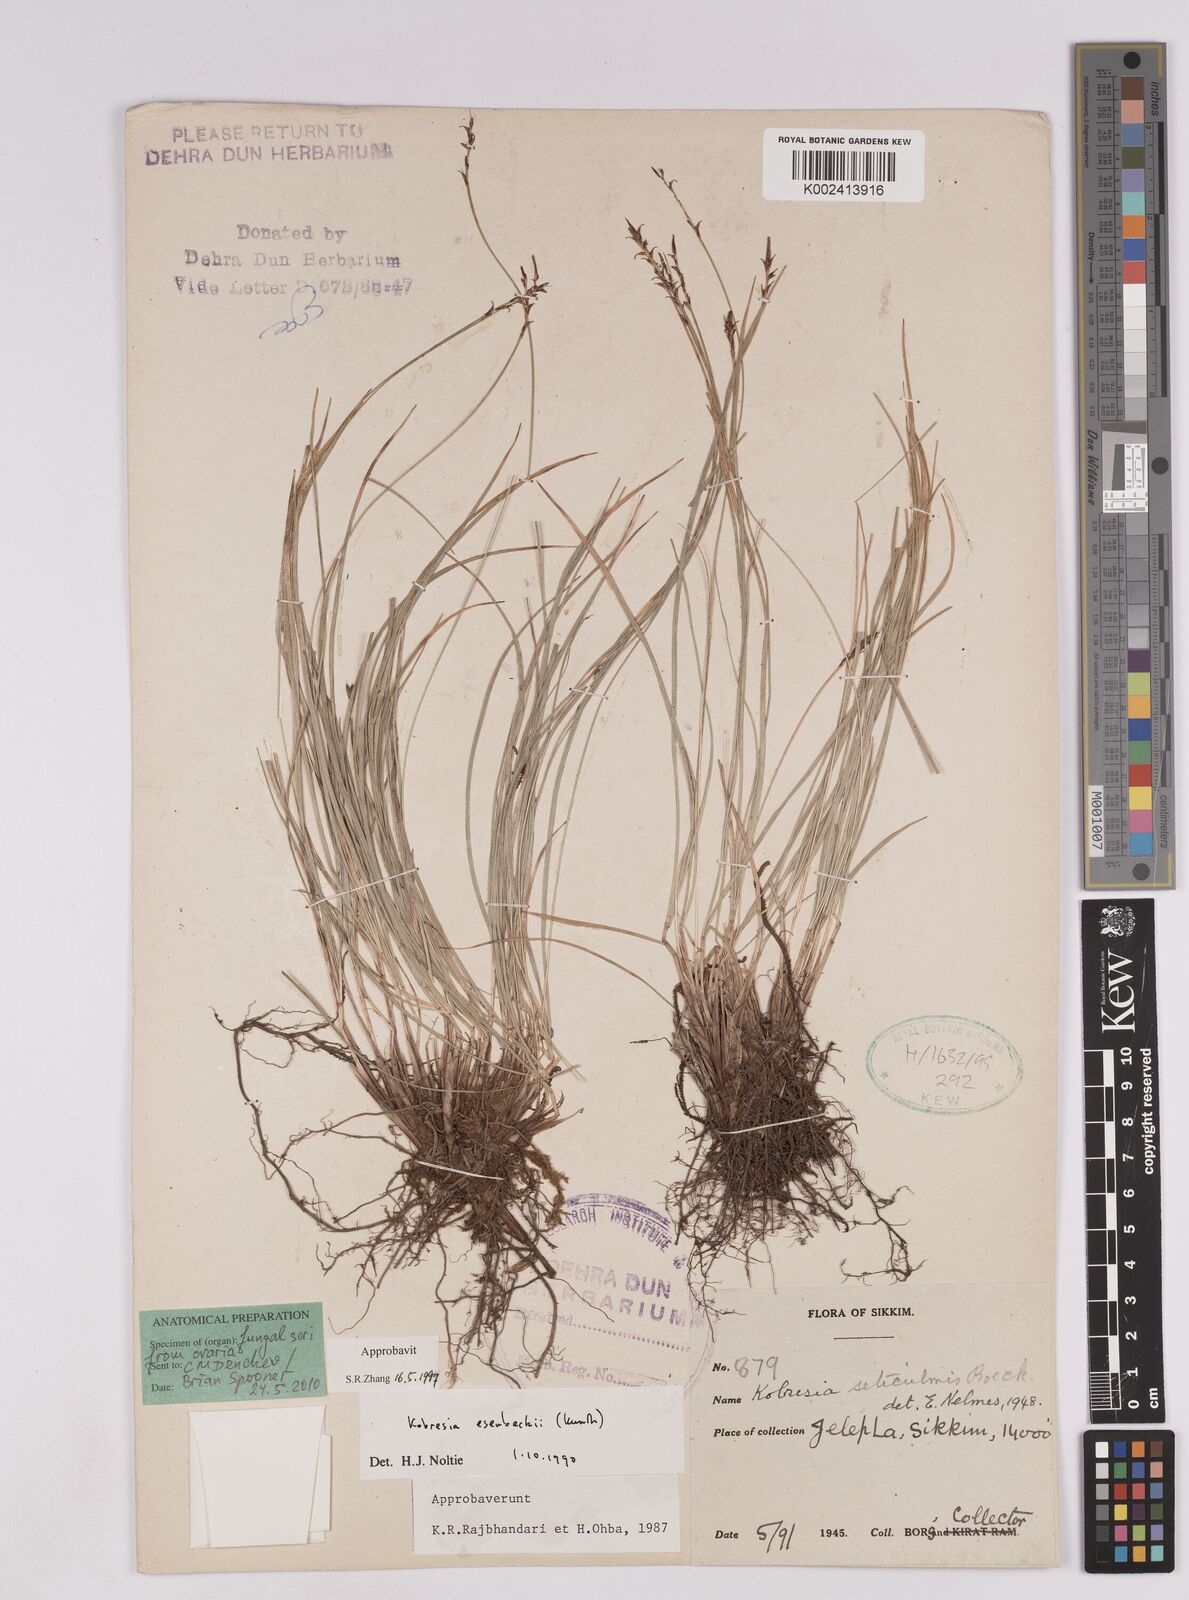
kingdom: Plantae
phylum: Tracheophyta
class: Liliopsida
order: Poales
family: Cyperaceae
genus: Carex
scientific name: Carex esenbeckii
